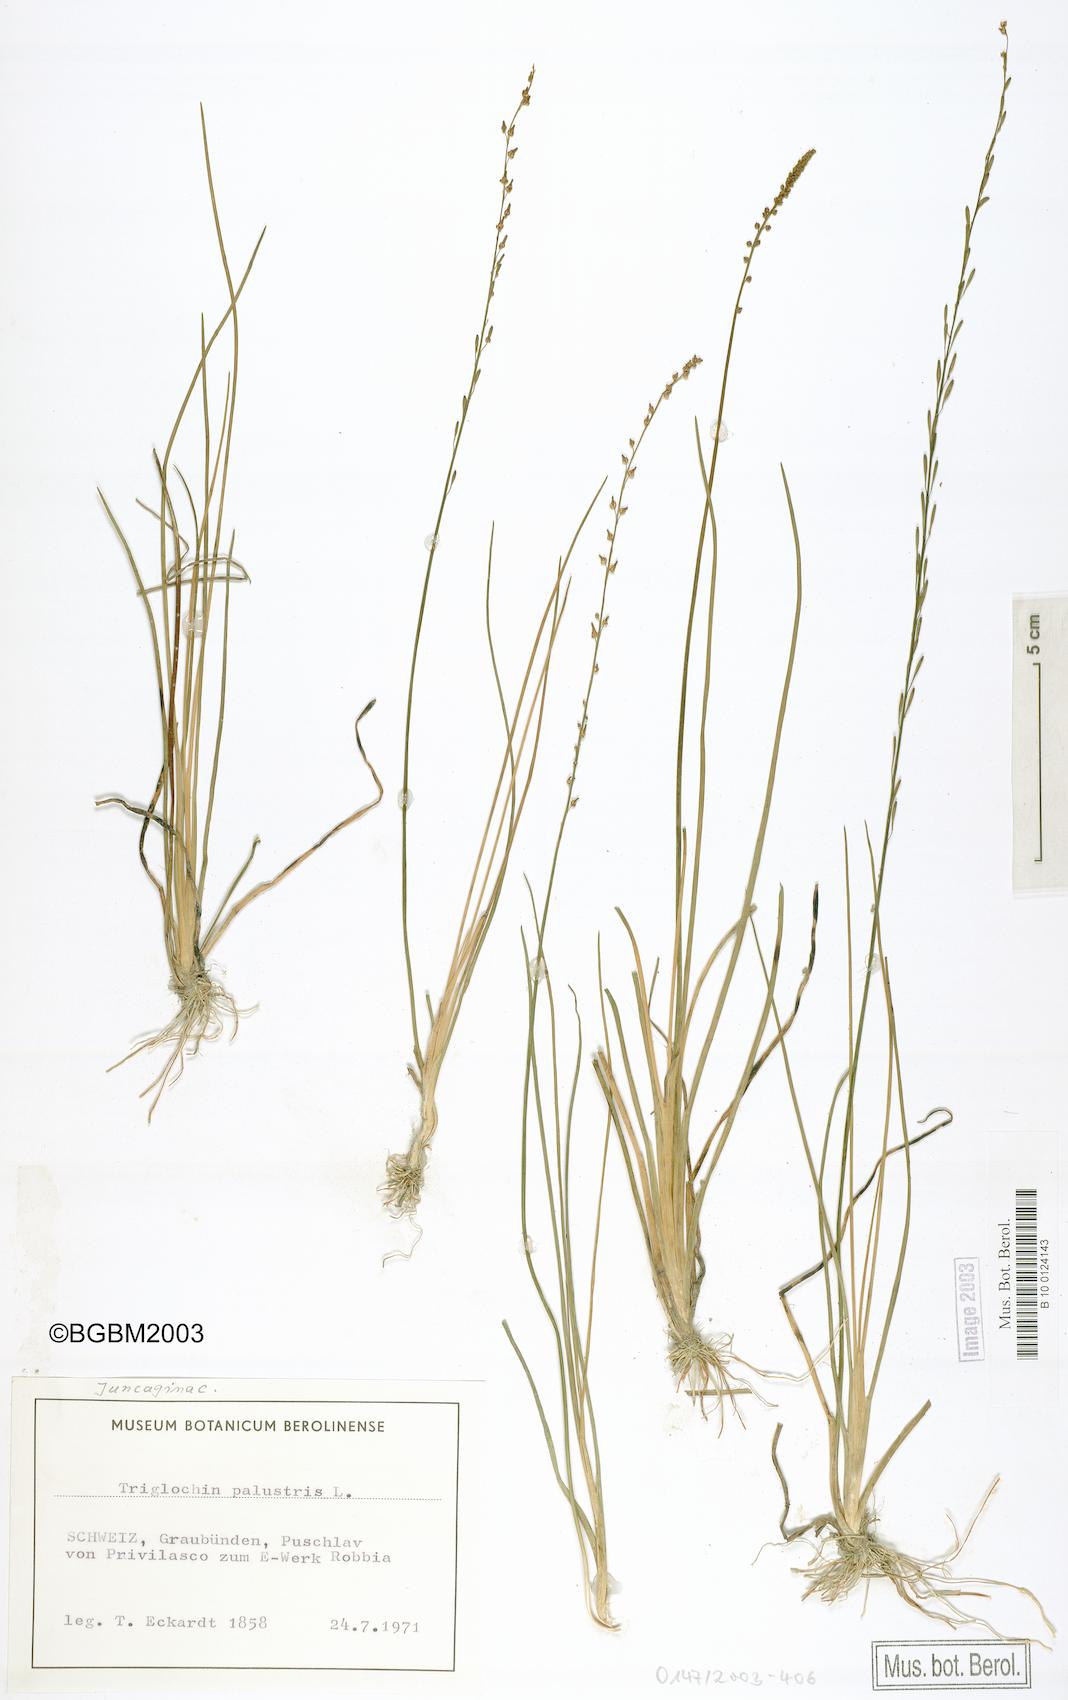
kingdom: Plantae
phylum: Tracheophyta
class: Liliopsida
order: Alismatales
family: Juncaginaceae
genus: Triglochin
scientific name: Triglochin palustris
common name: Marsh arrowgrass
